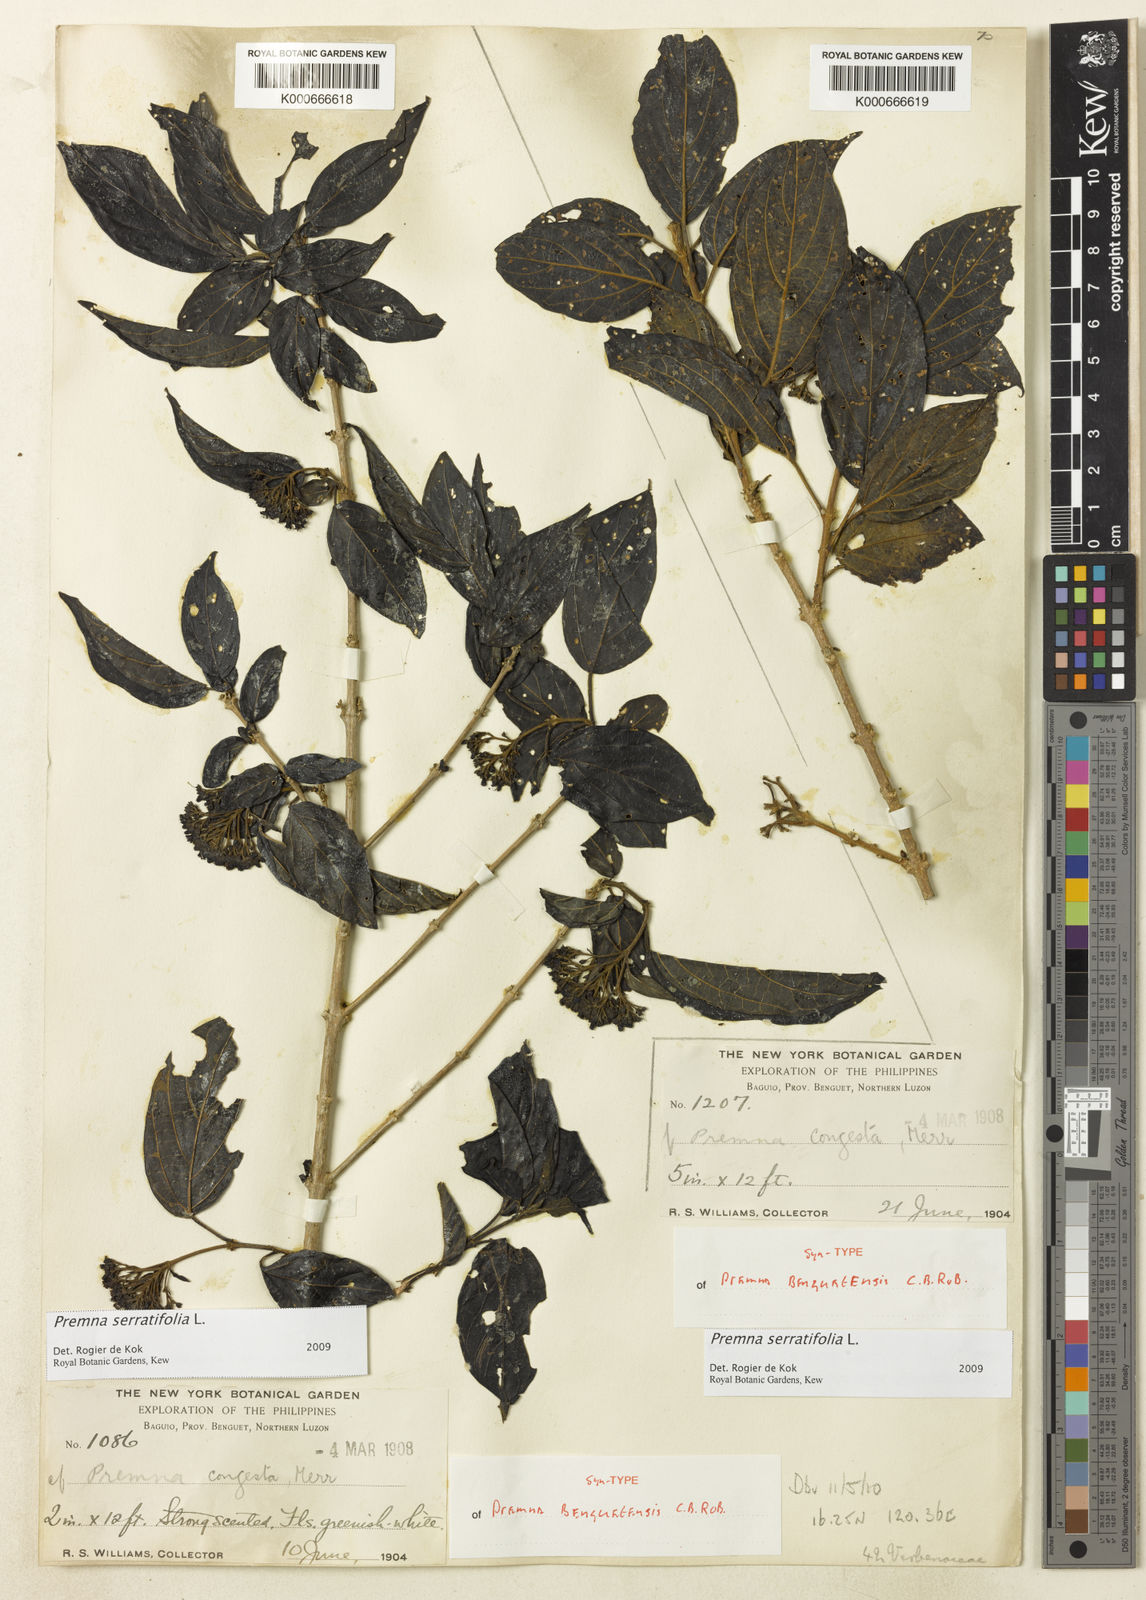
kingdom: Plantae
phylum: Tracheophyta
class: Magnoliopsida
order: Lamiales
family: Lamiaceae
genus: Premna
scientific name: Premna serratifolia
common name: Bastard guelder
